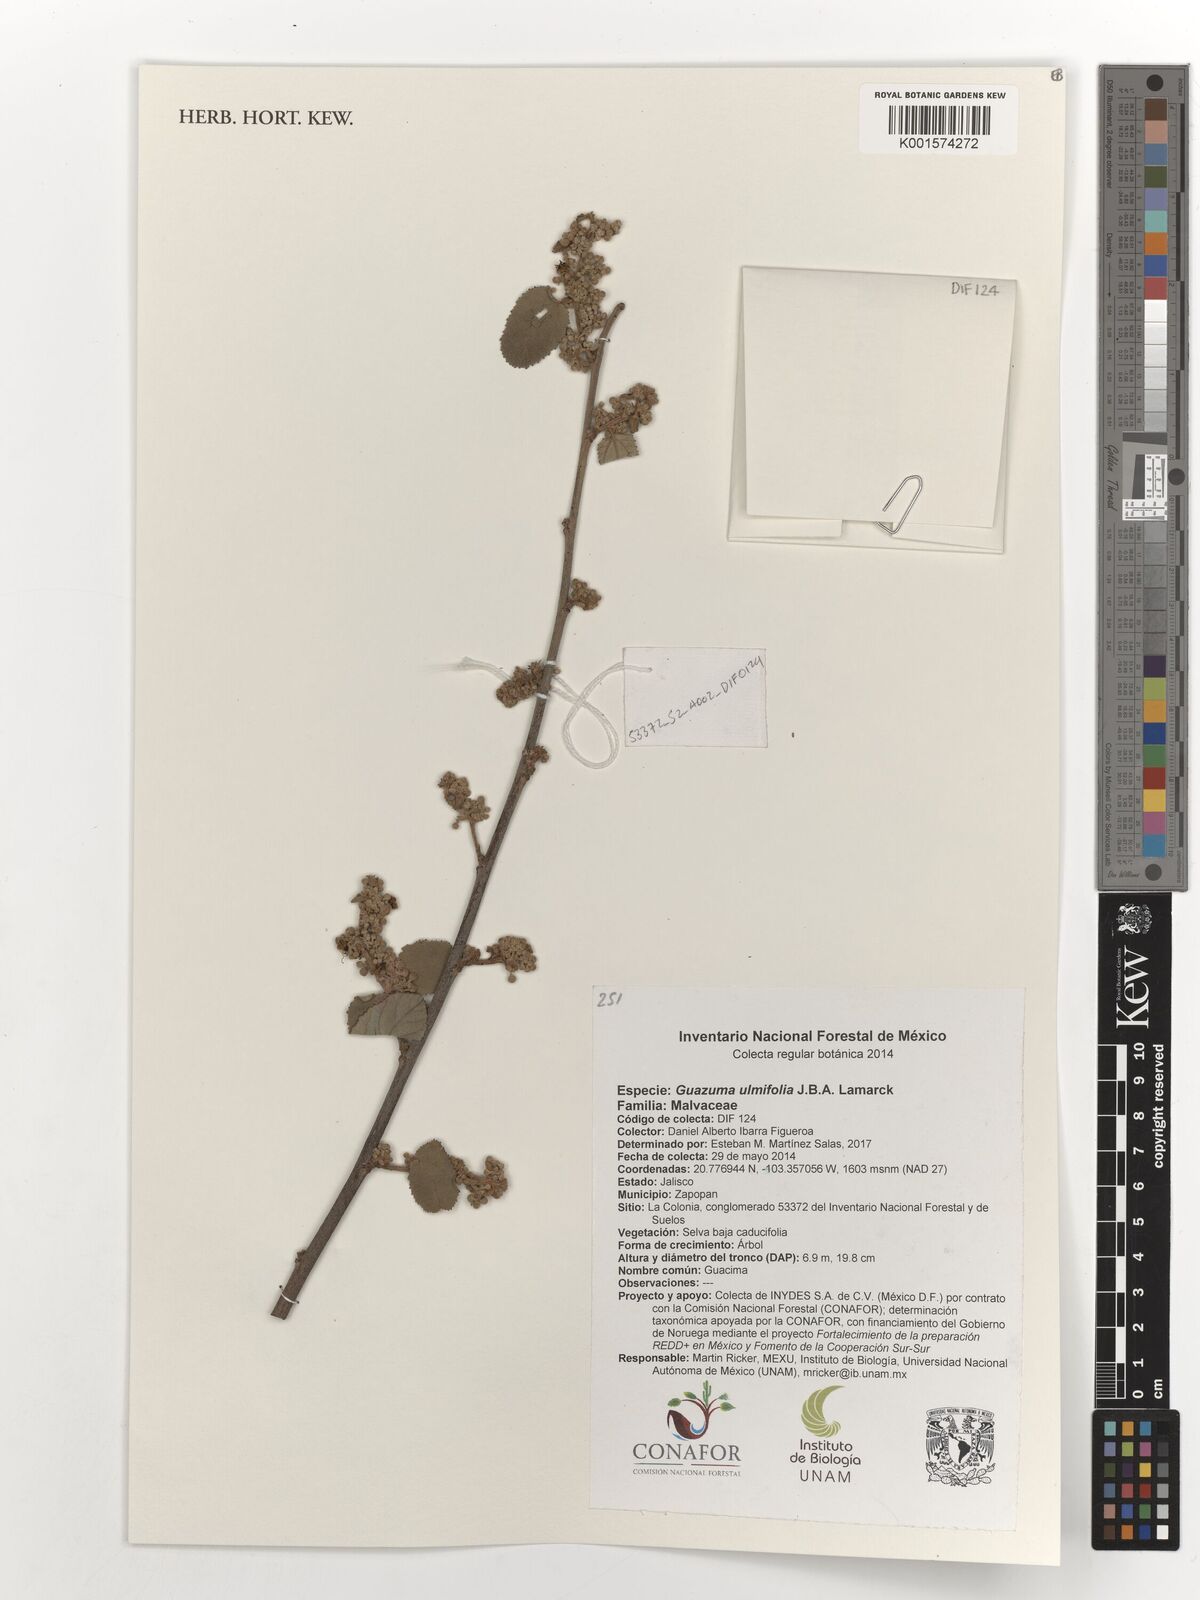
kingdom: Plantae
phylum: Tracheophyta
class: Magnoliopsida
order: Malvales
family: Malvaceae
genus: Guazuma
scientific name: Guazuma ulmifolia
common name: Bastard-cedar
